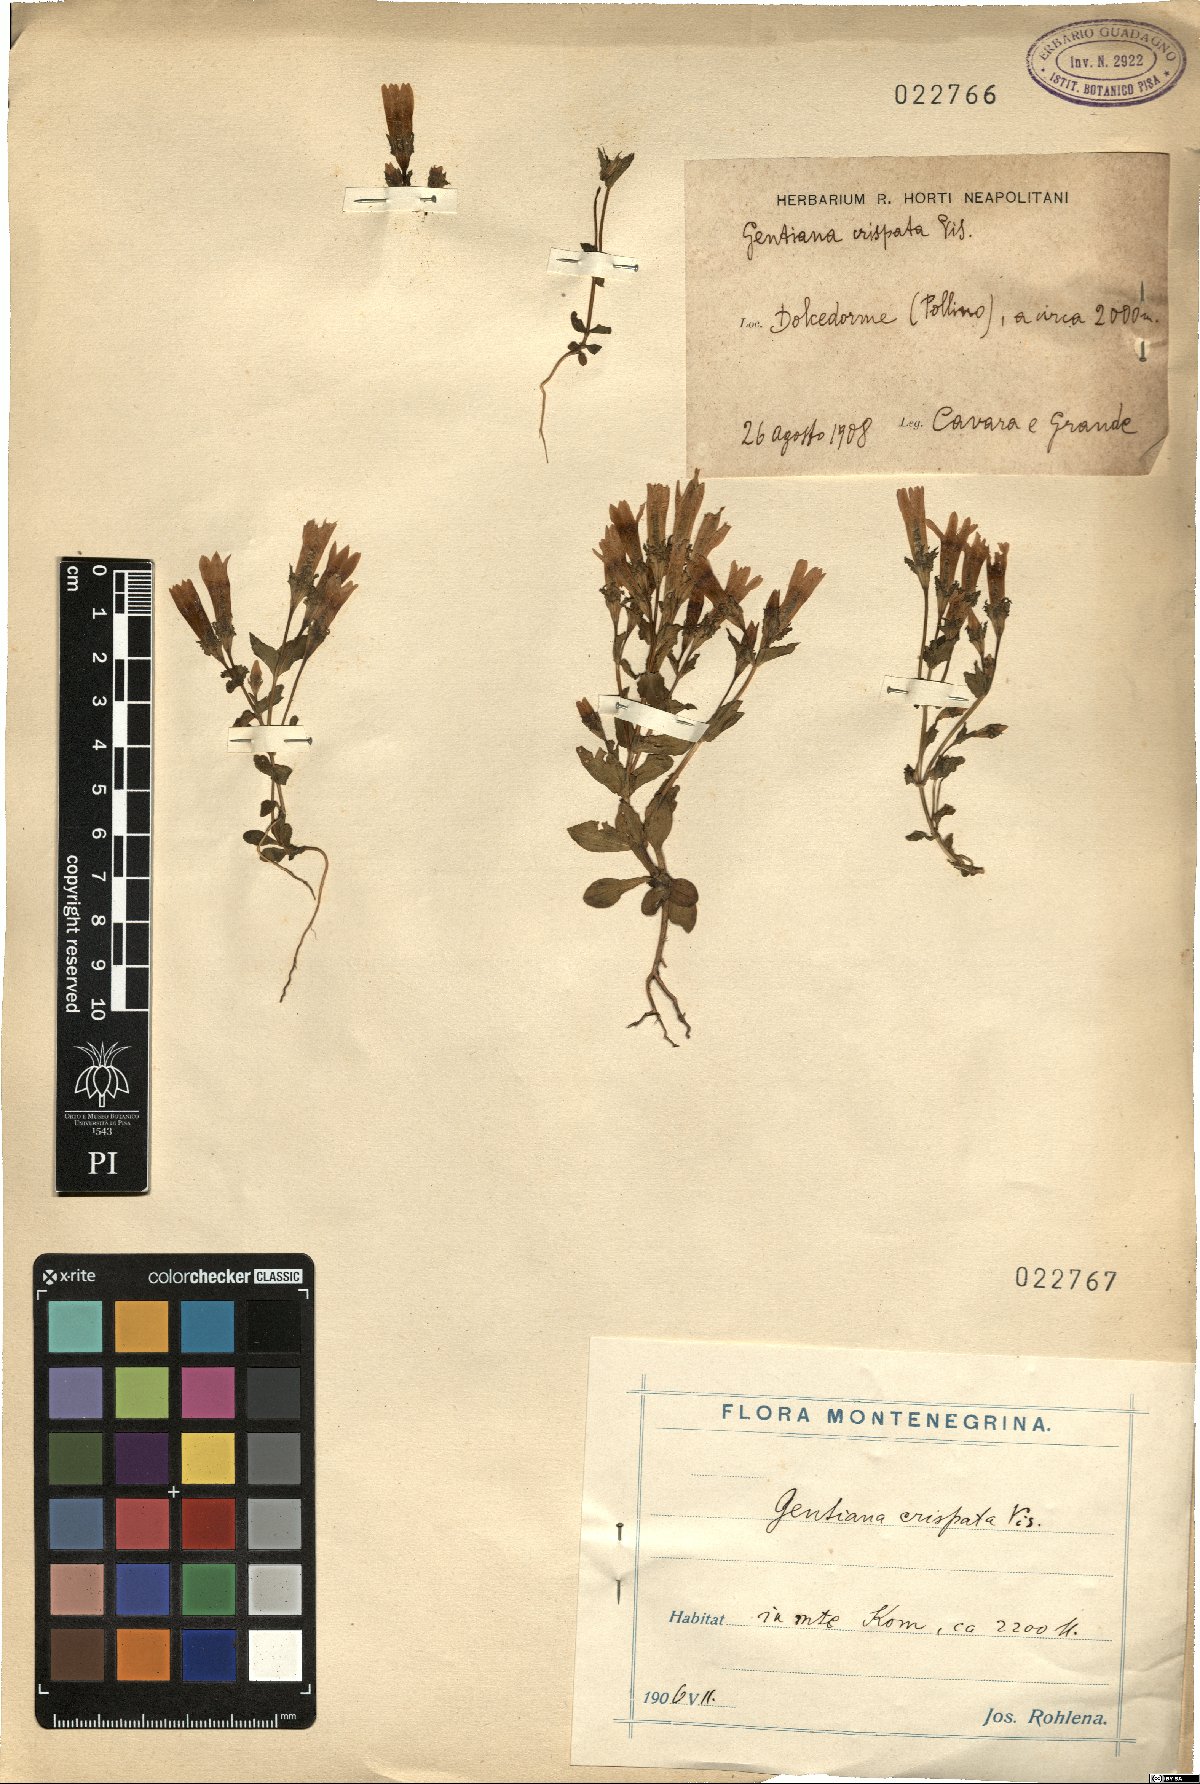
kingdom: Plantae
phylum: Tracheophyta
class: Magnoliopsida
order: Gentianales
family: Gentianaceae
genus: Gentianella
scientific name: Gentianella crispata
